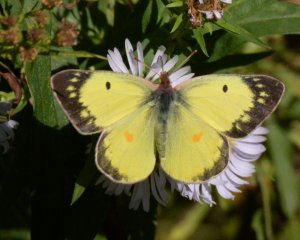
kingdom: Animalia
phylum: Arthropoda
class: Insecta
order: Lepidoptera
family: Pieridae
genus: Colias
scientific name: Colias philodice
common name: Clouded Sulphur
